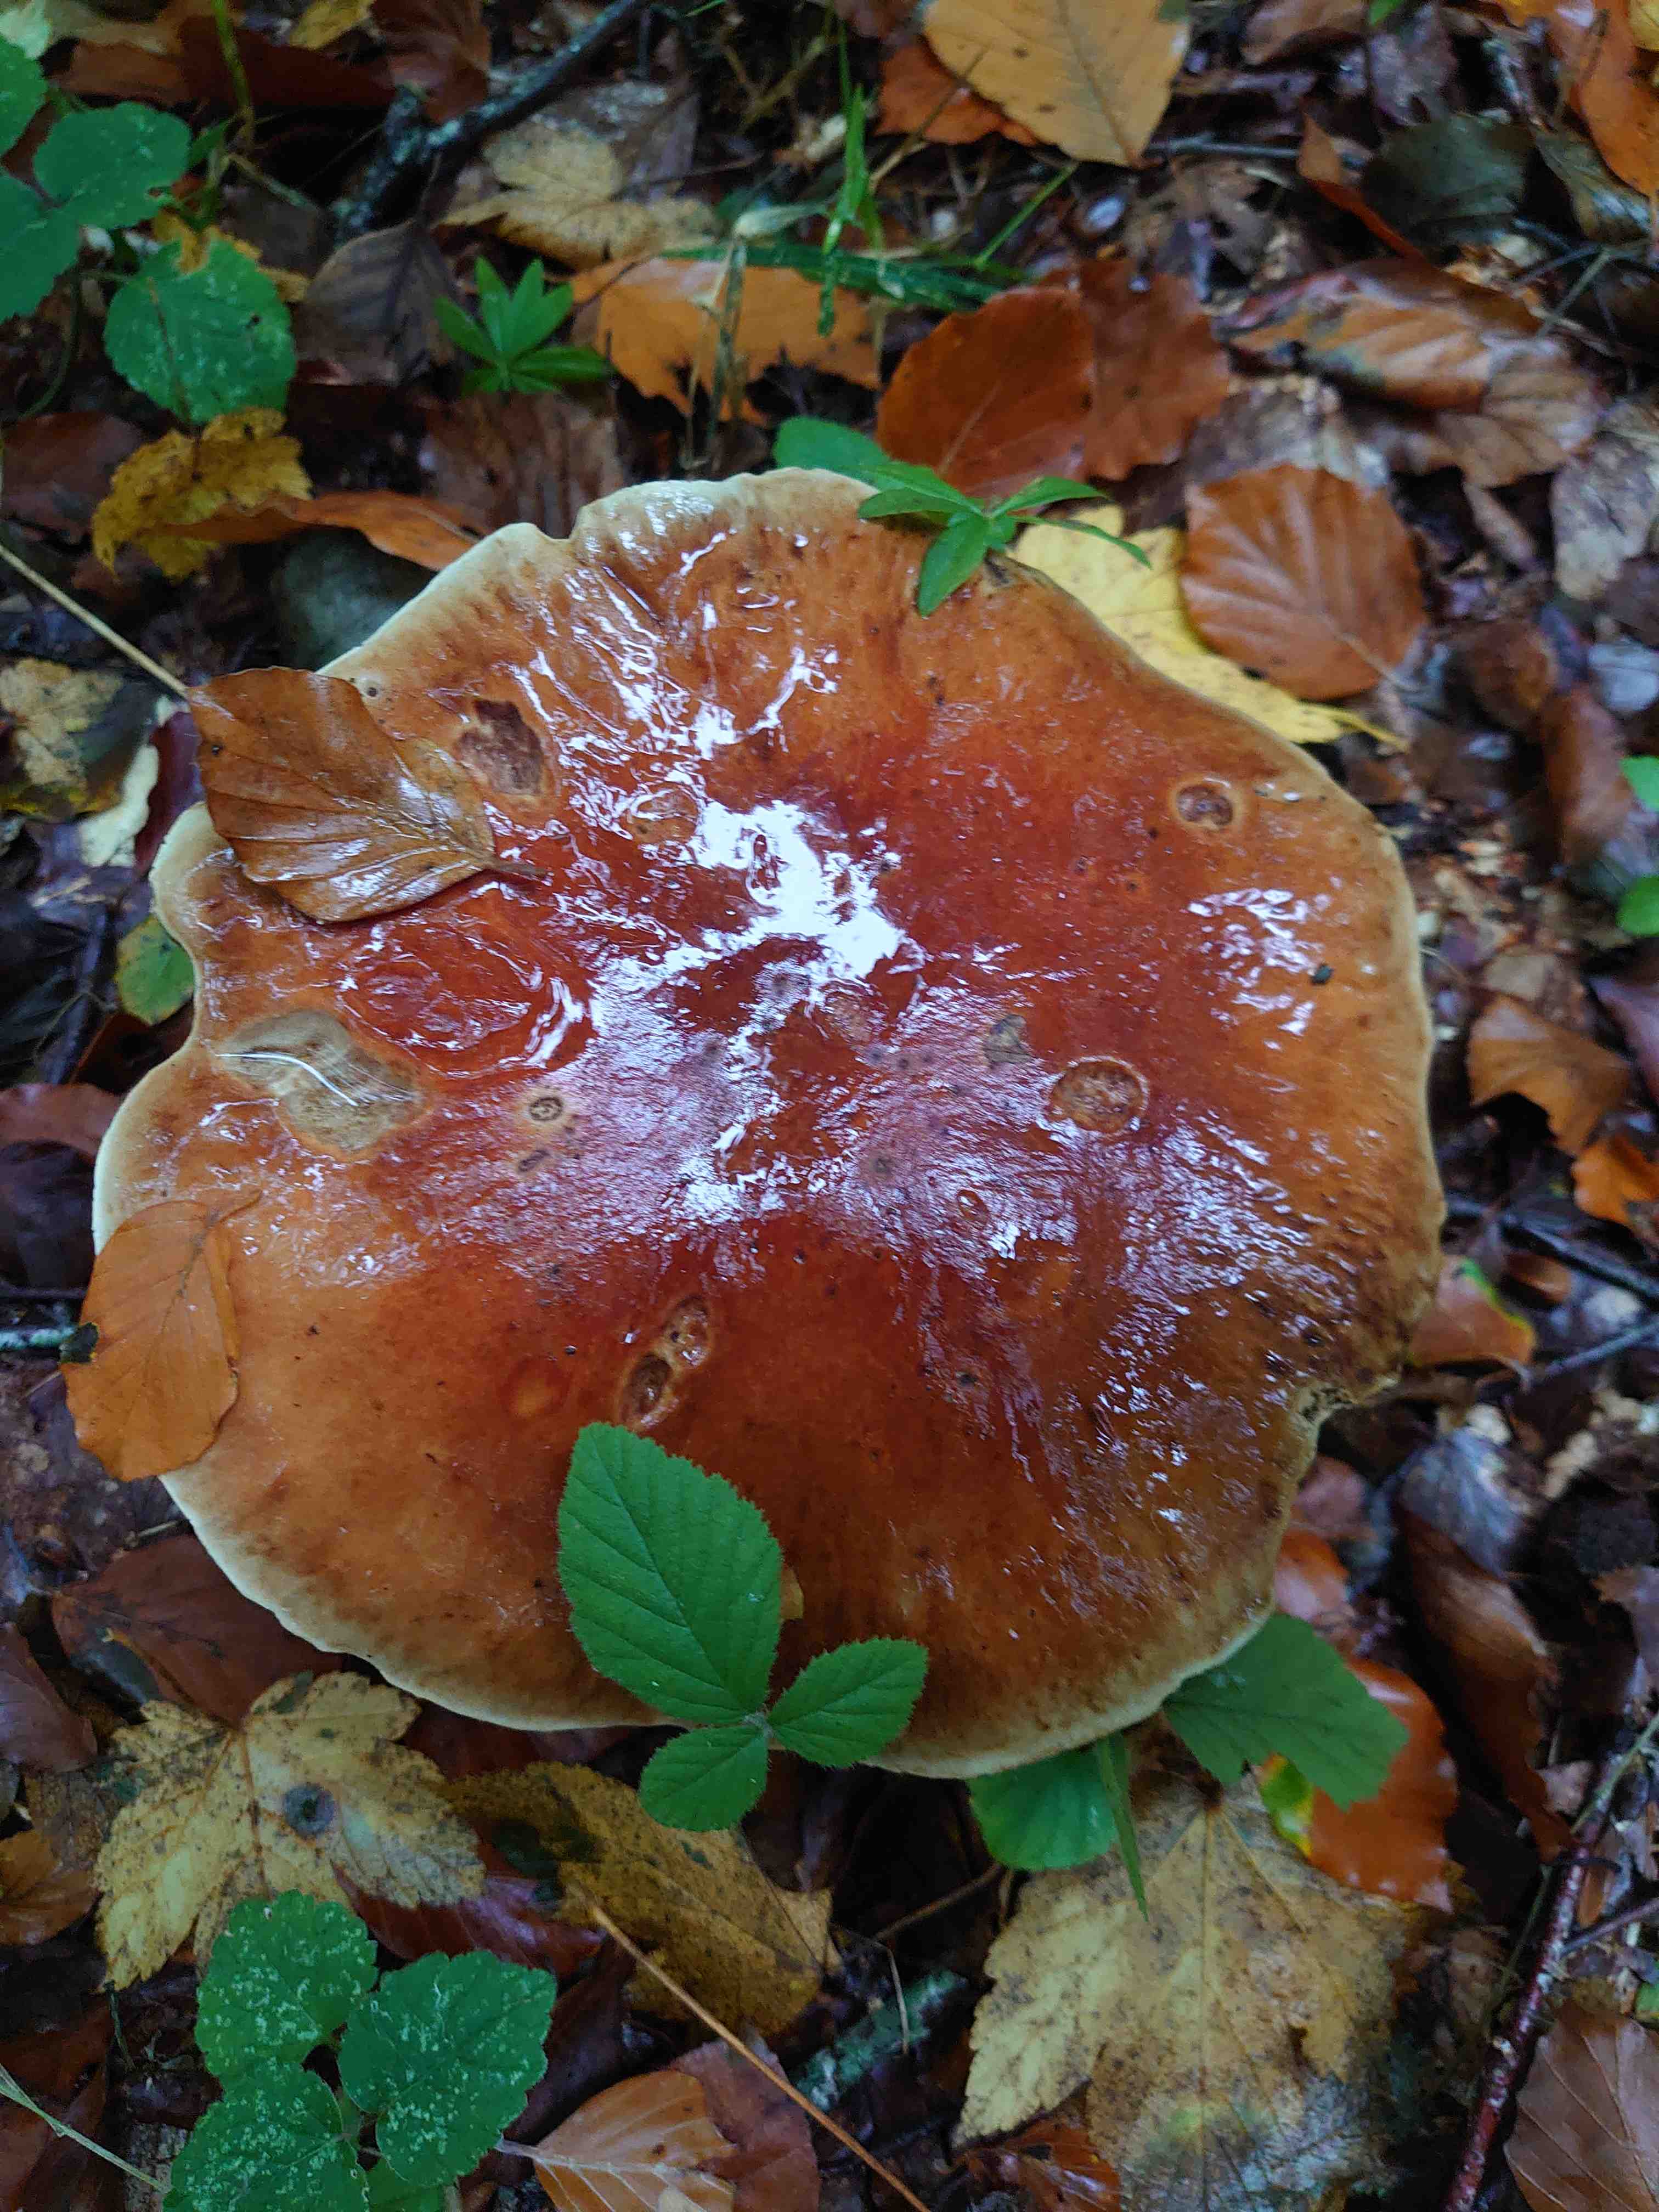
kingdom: Fungi
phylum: Basidiomycota
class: Agaricomycetes
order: Agaricales
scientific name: Agaricales
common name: champignonordenen
